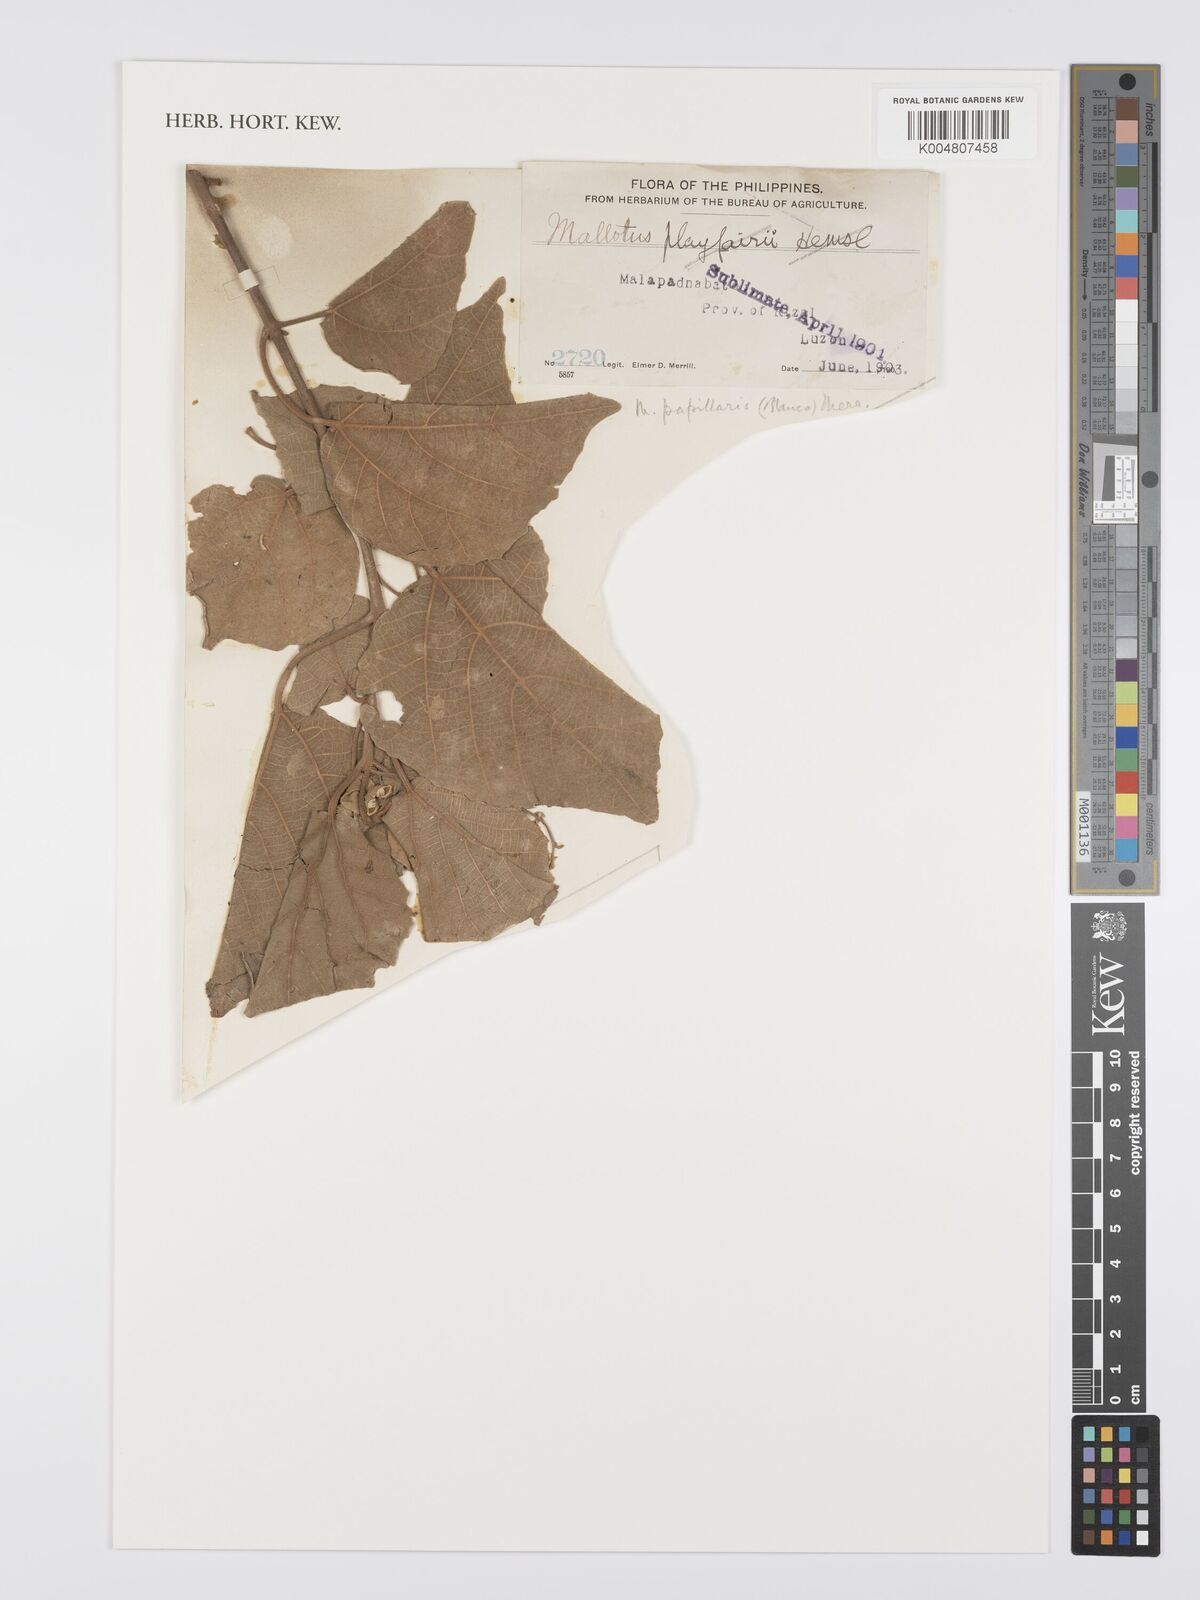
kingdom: Plantae
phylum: Tracheophyta
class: Magnoliopsida
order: Malpighiales
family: Euphorbiaceae
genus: Mallotus
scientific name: Mallotus tiliifolius
